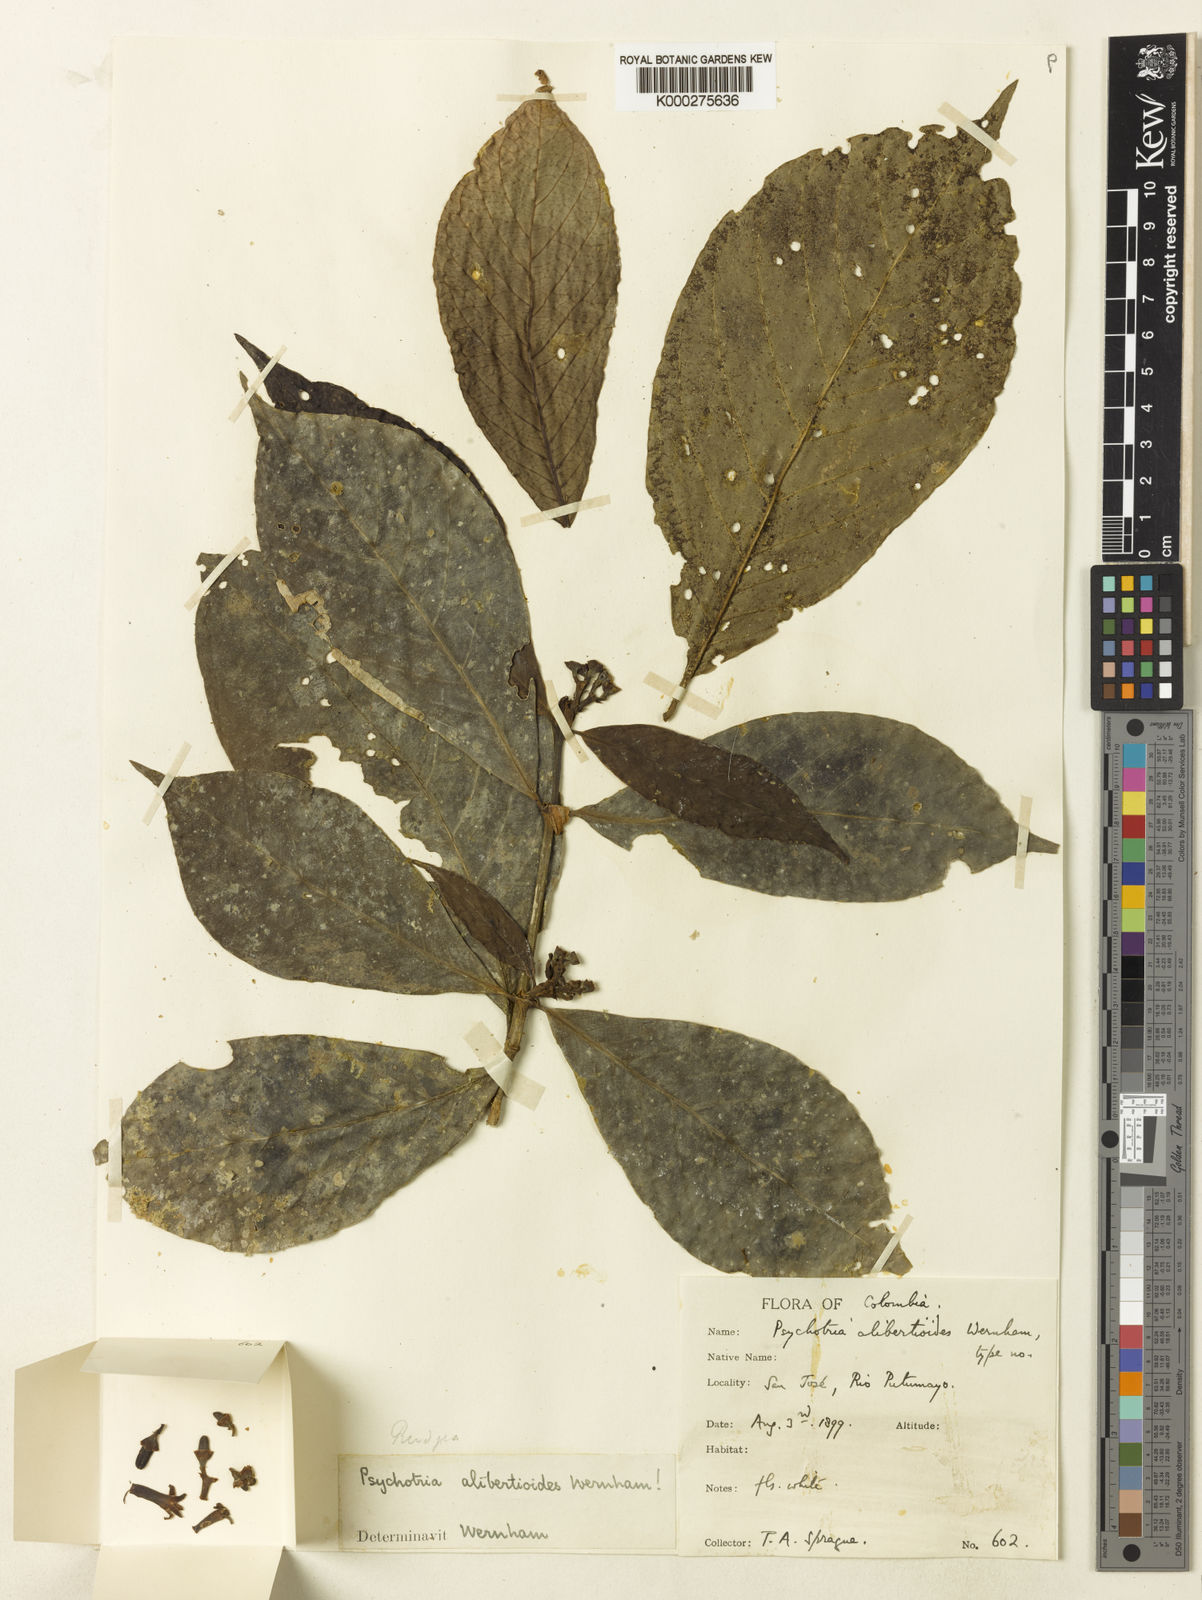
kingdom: Plantae
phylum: Tracheophyta
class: Magnoliopsida
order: Gentianales
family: Rubiaceae
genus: Rudgea
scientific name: Rudgea loretensis
